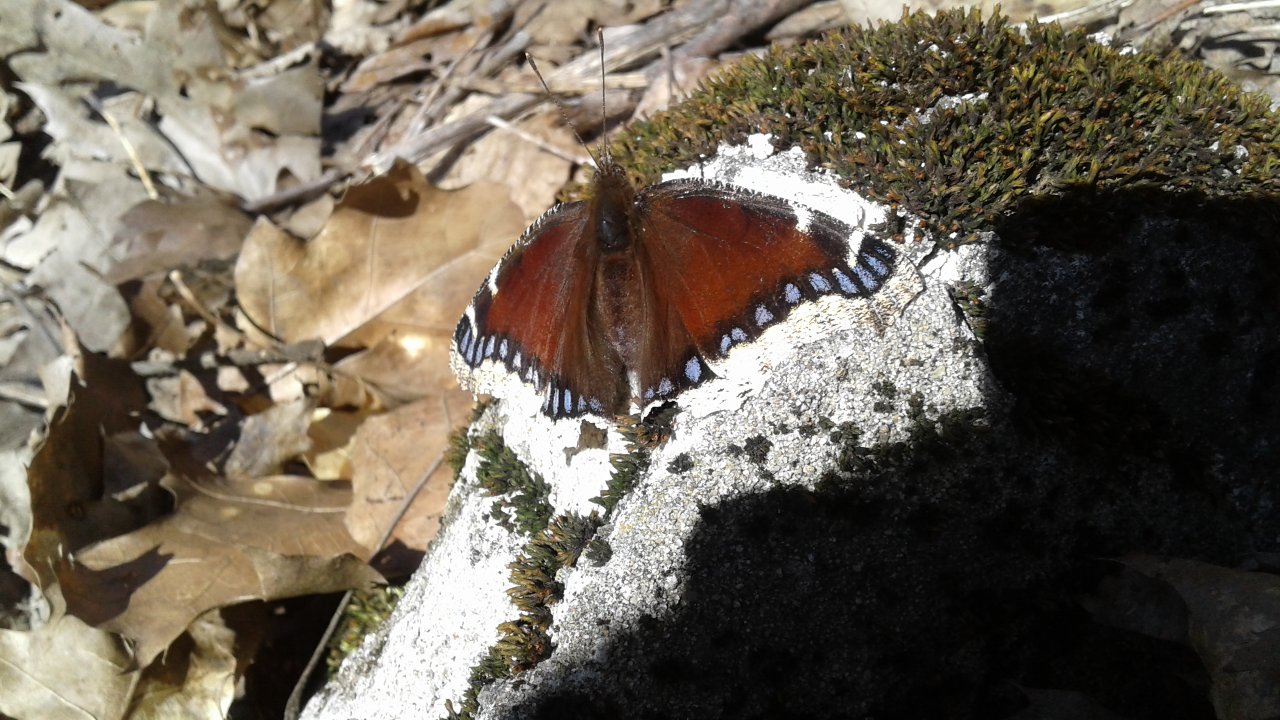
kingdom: Animalia
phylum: Arthropoda
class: Insecta
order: Lepidoptera
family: Nymphalidae
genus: Nymphalis
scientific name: Nymphalis antiopa
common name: Mourning Cloak
